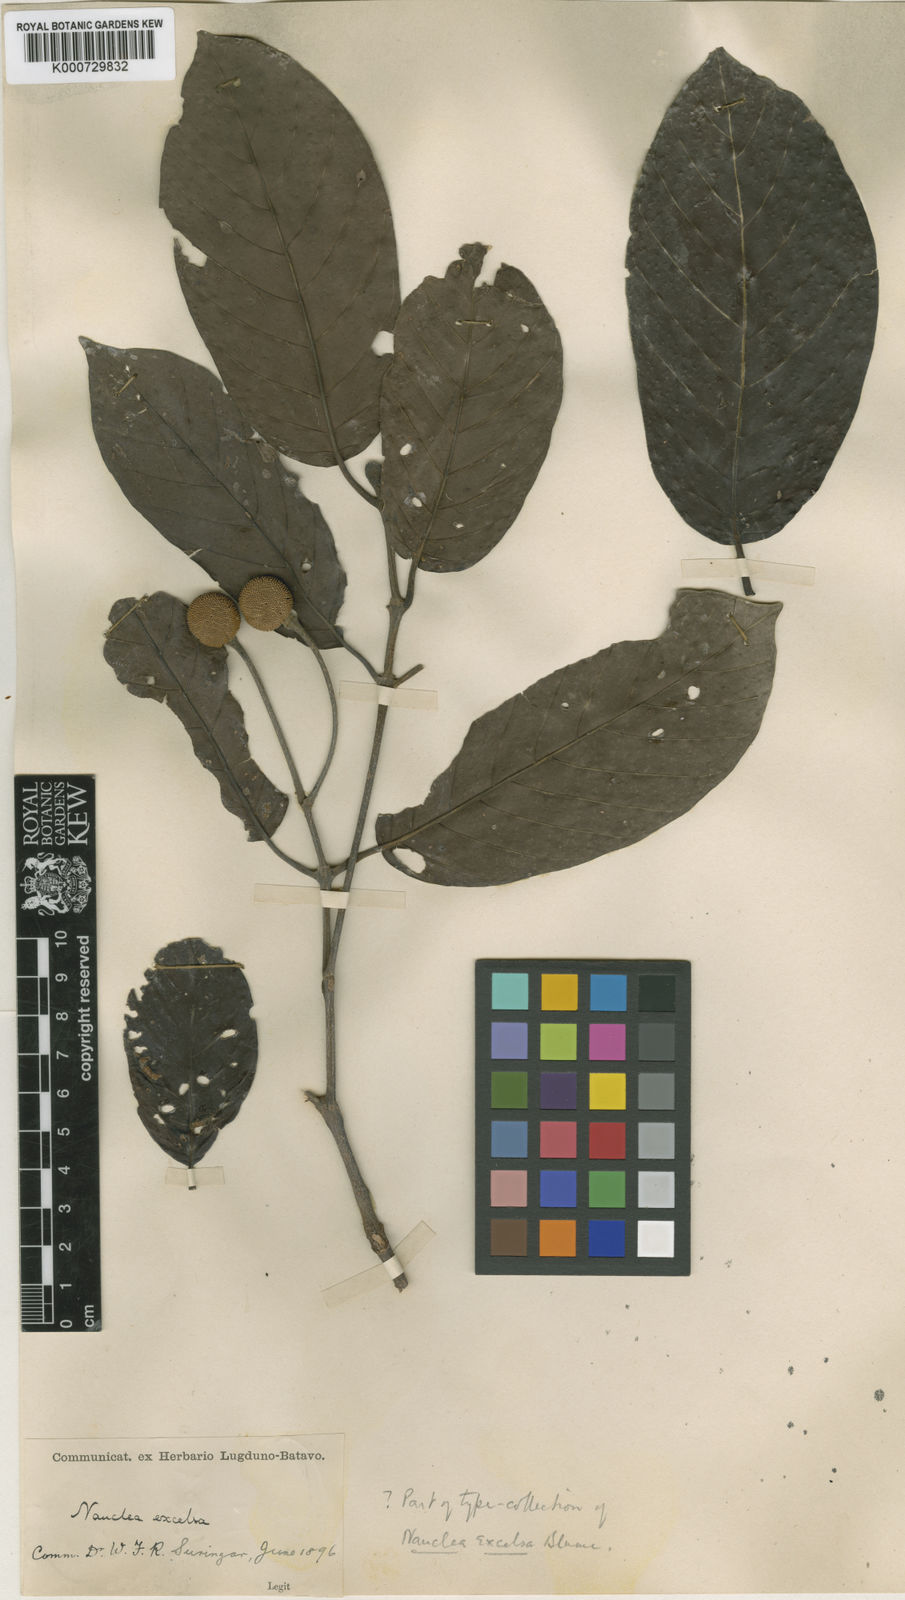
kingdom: Plantae
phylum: Tracheophyta
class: Magnoliopsida
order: Gentianales
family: Rubiaceae
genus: Neonauclea
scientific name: Neonauclea excelsa
